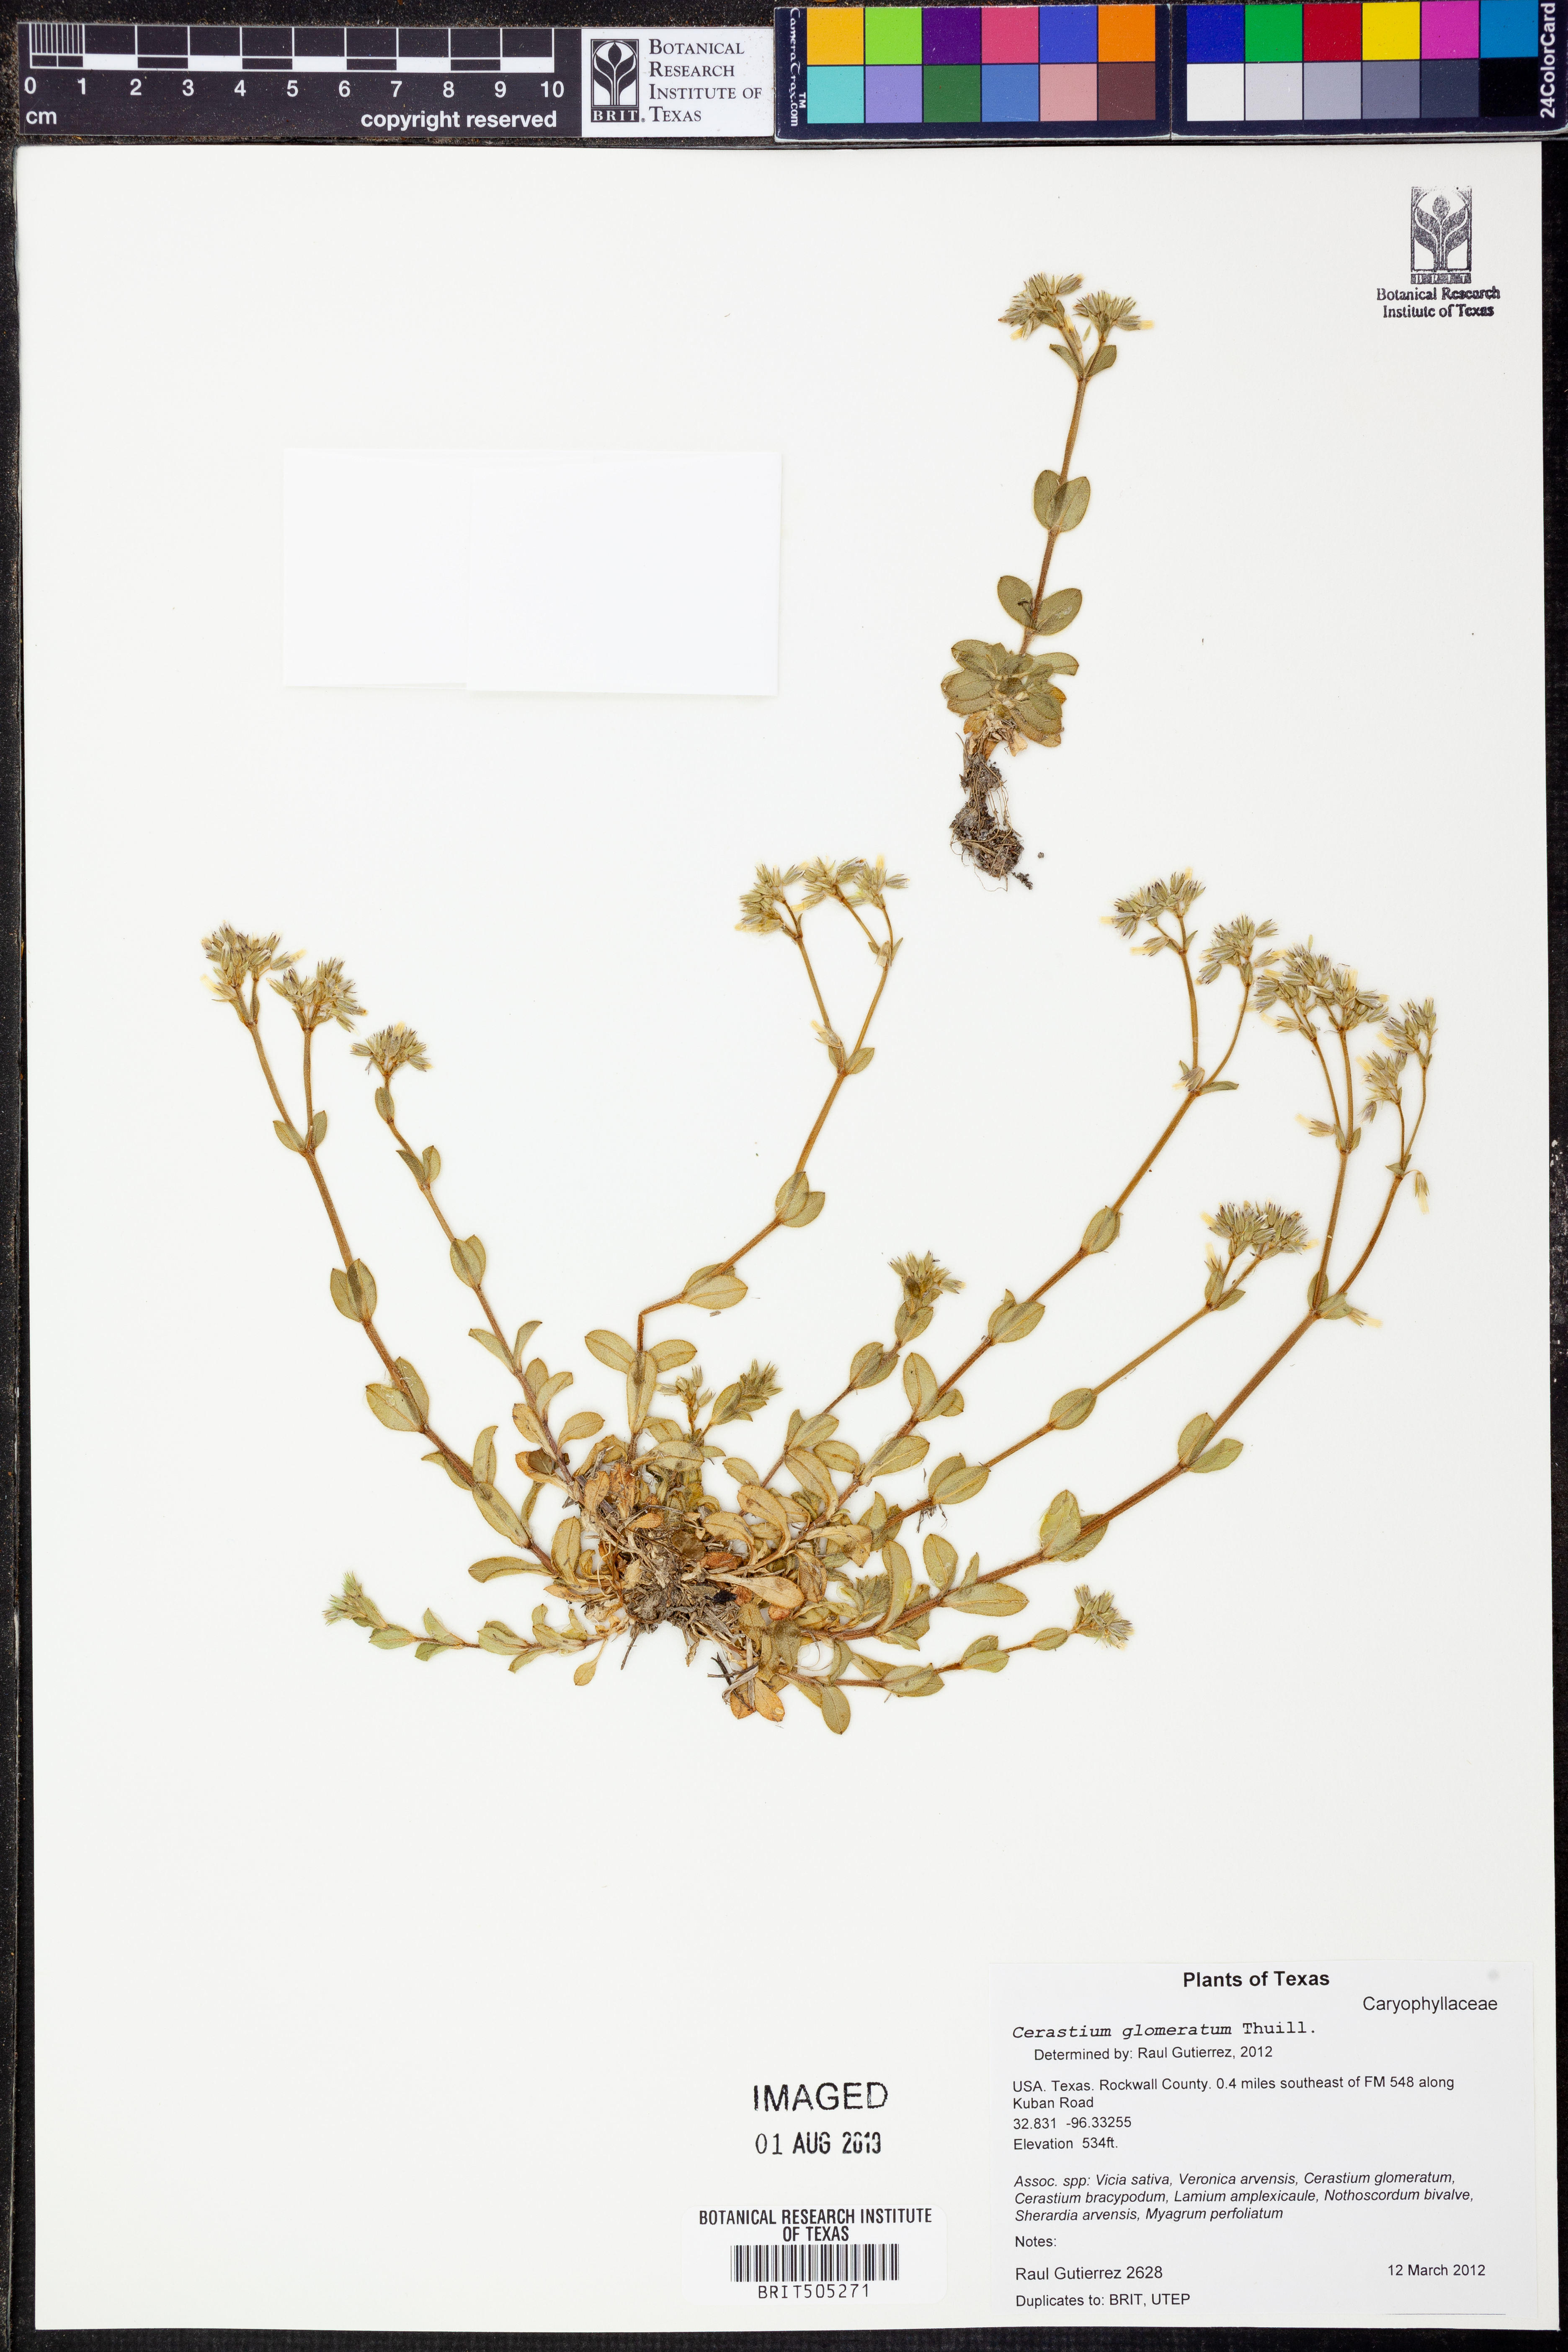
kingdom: Plantae
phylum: Tracheophyta
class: Magnoliopsida
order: Caryophyllales
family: Caryophyllaceae
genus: Cerastium
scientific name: Cerastium glomeratum
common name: Sticky chickweed
